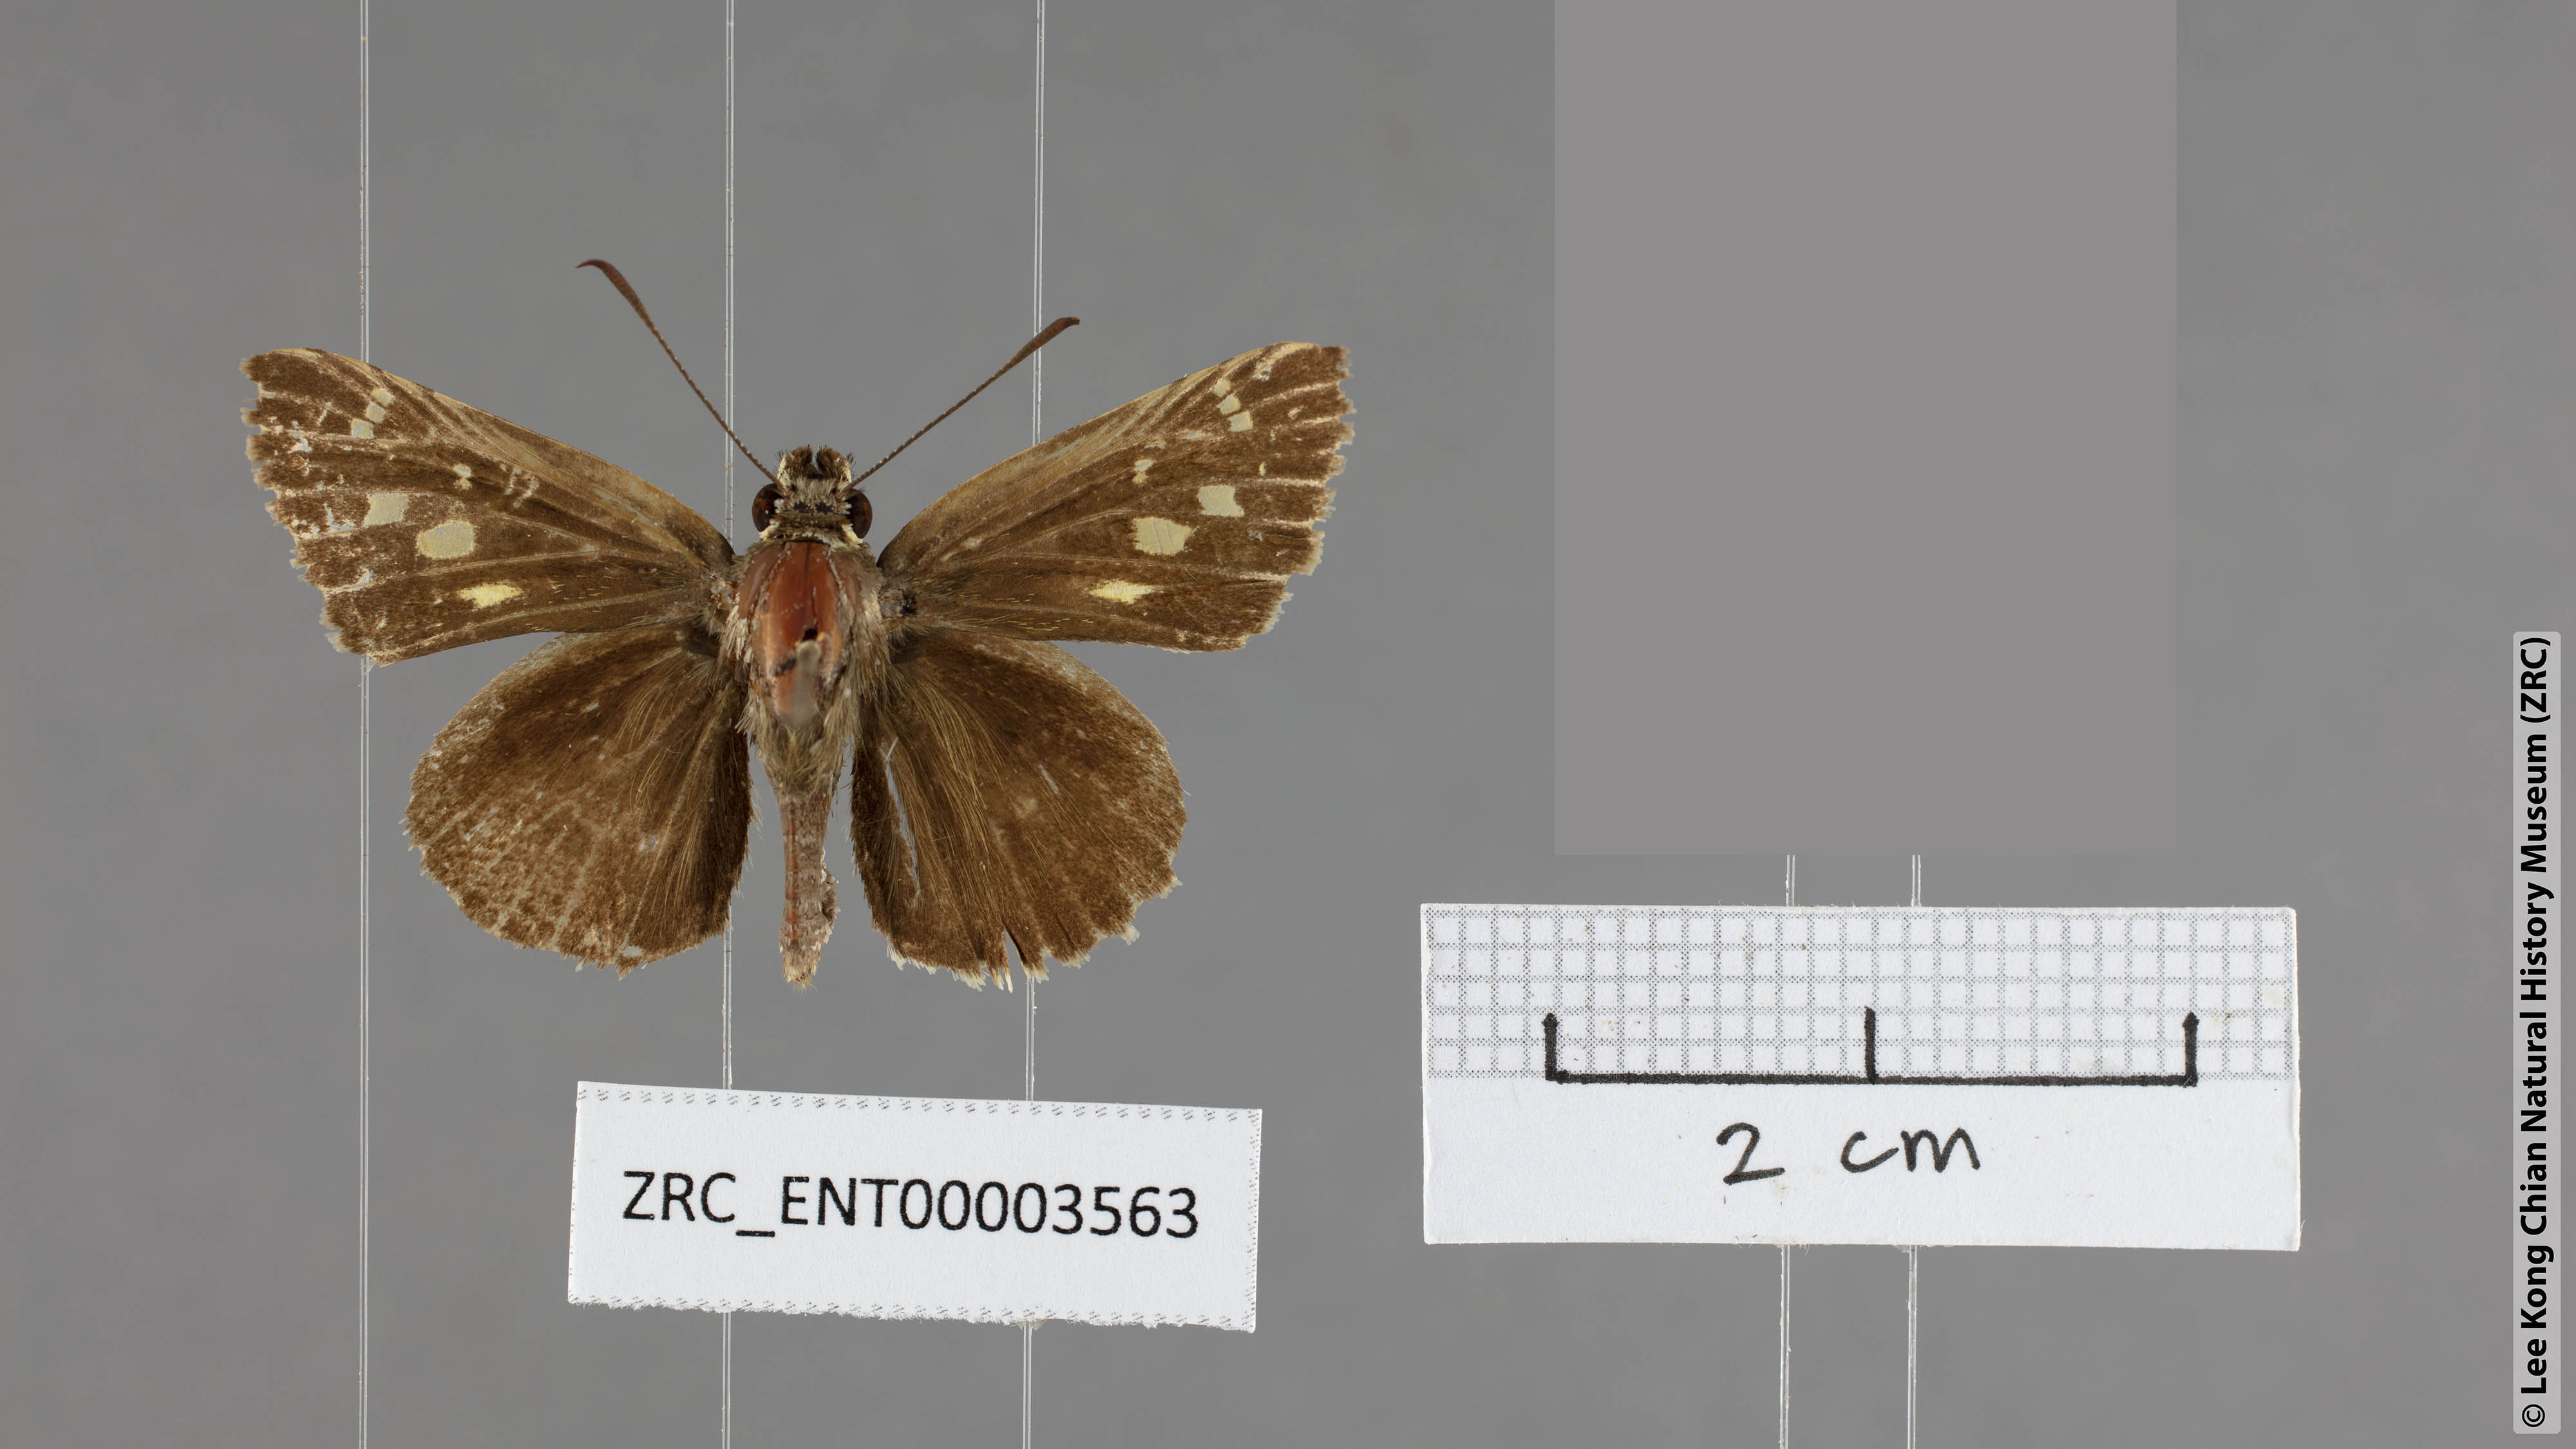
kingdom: Animalia
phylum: Arthropoda
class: Insecta
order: Lepidoptera
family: Hesperiidae
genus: Suastus
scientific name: Suastus gremius
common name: Indian palm bob
